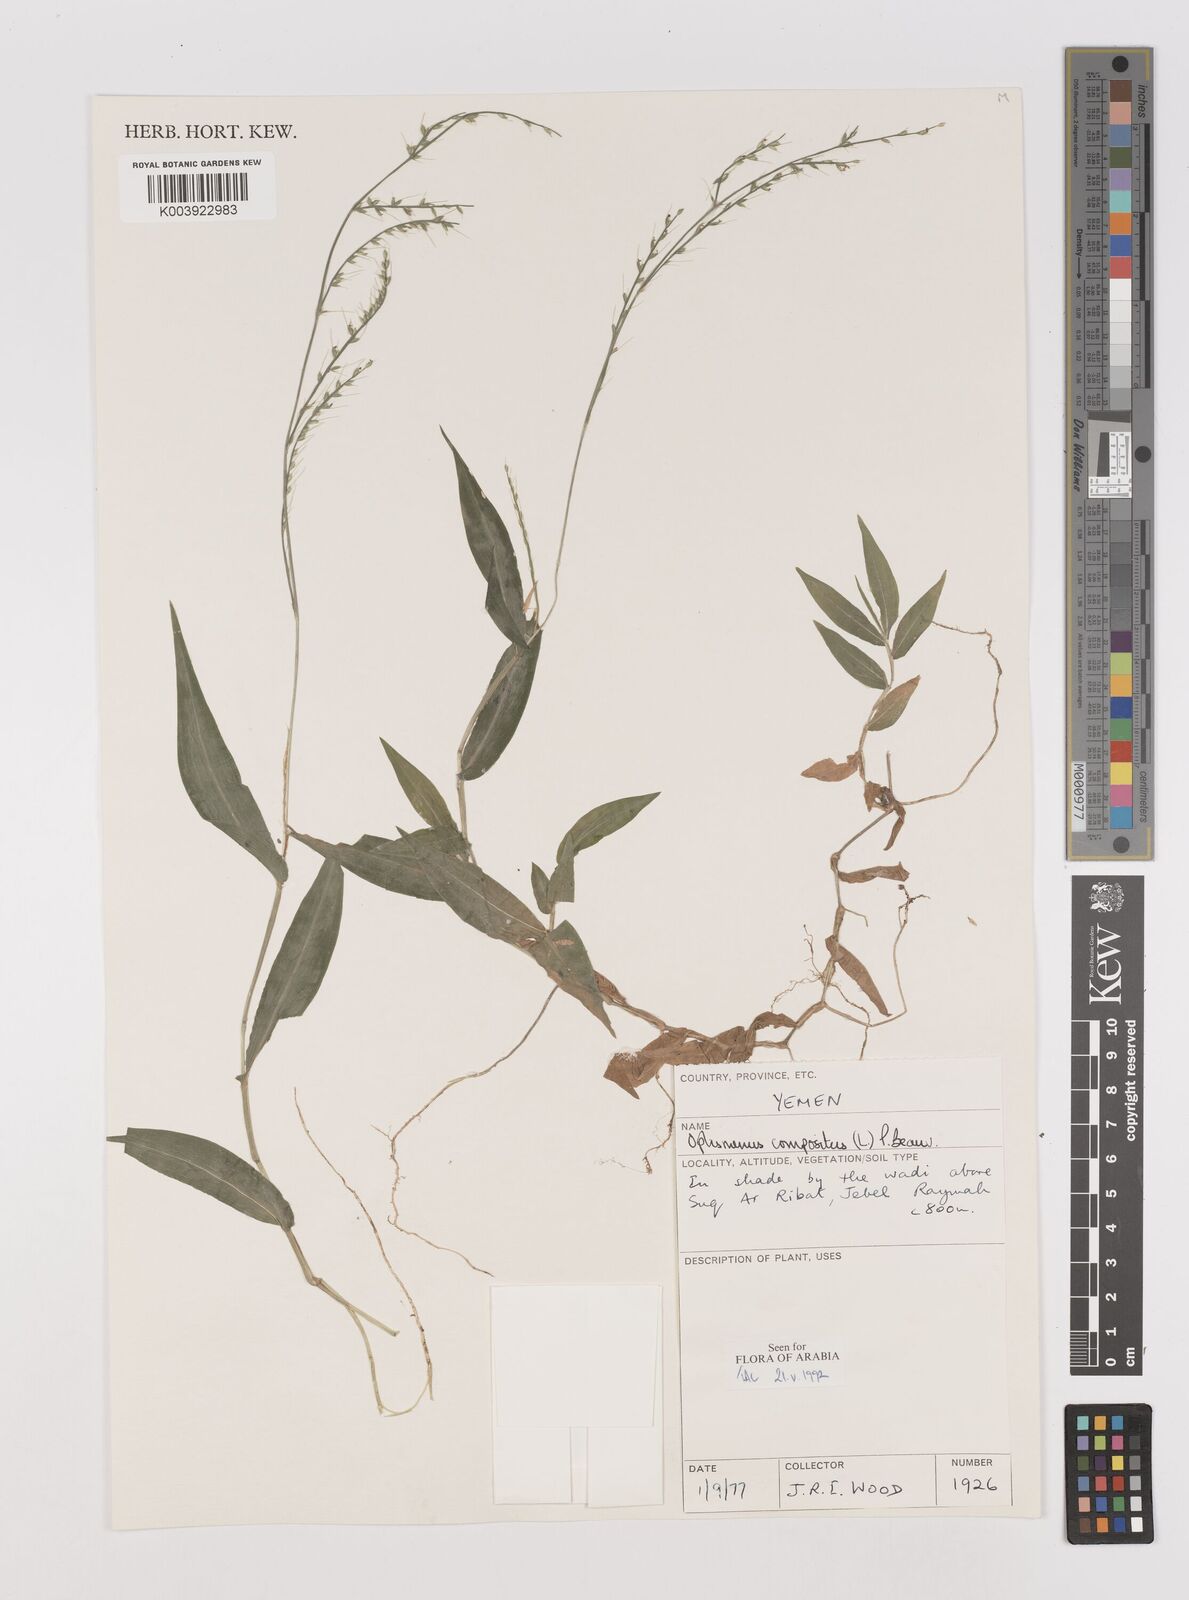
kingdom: Plantae
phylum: Tracheophyta
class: Liliopsida
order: Poales
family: Poaceae
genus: Oplismenus
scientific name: Oplismenus compositus
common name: Running mountain grass
